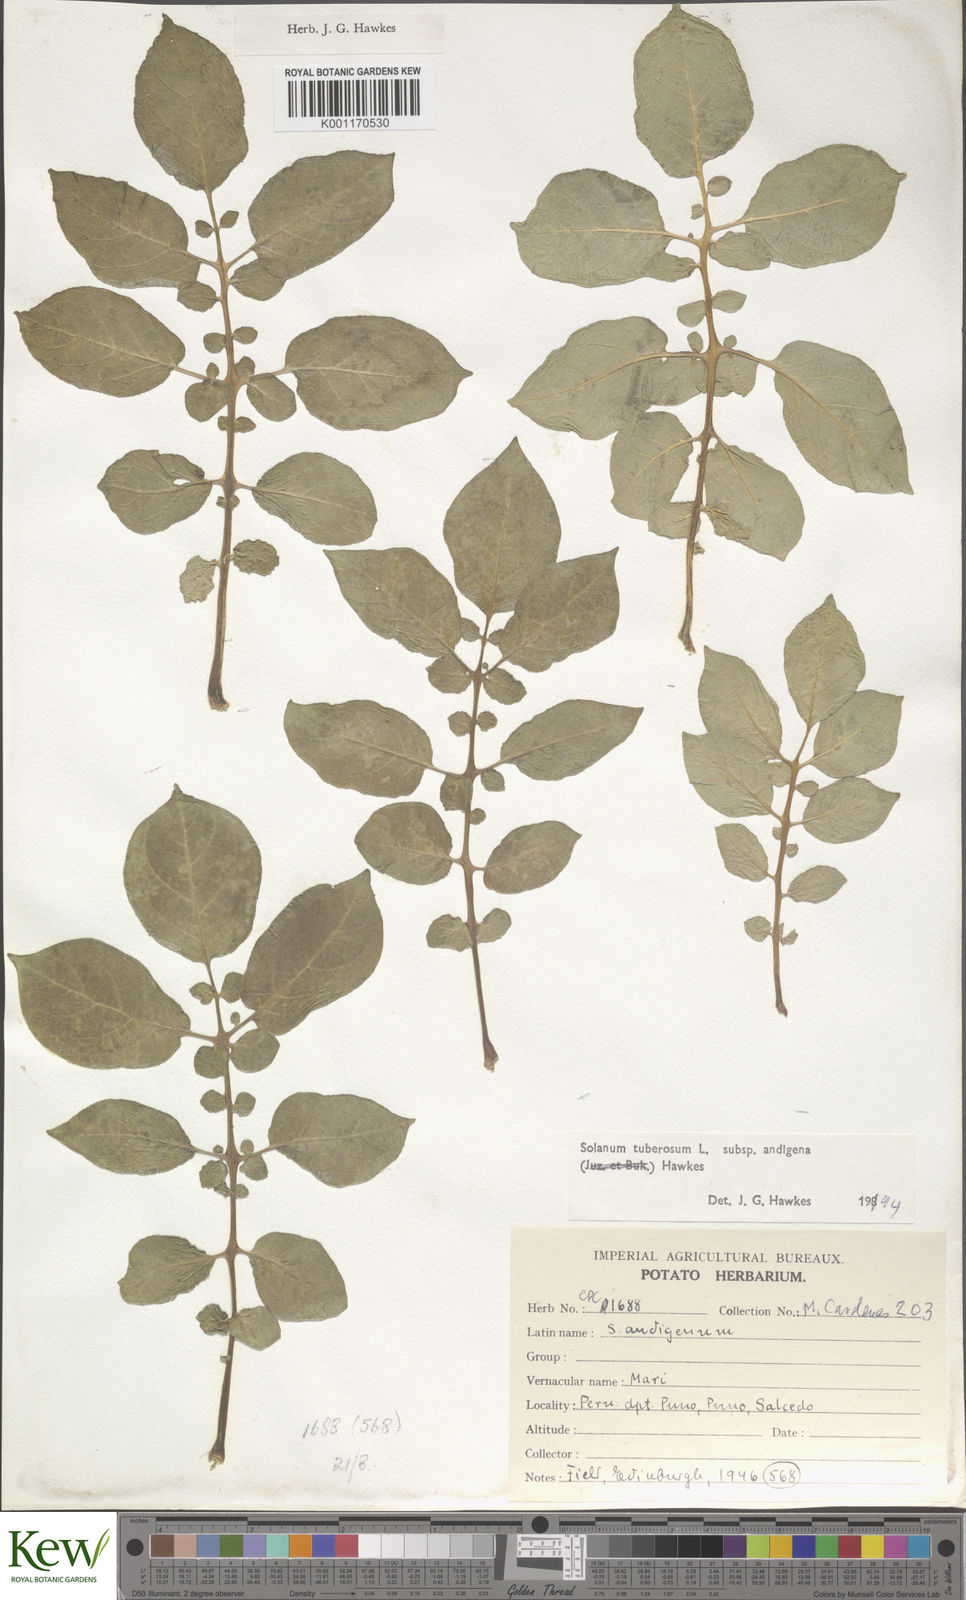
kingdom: Plantae
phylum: Tracheophyta
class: Magnoliopsida
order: Solanales
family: Solanaceae
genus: Solanum
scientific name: Solanum tuberosum
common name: Potato
